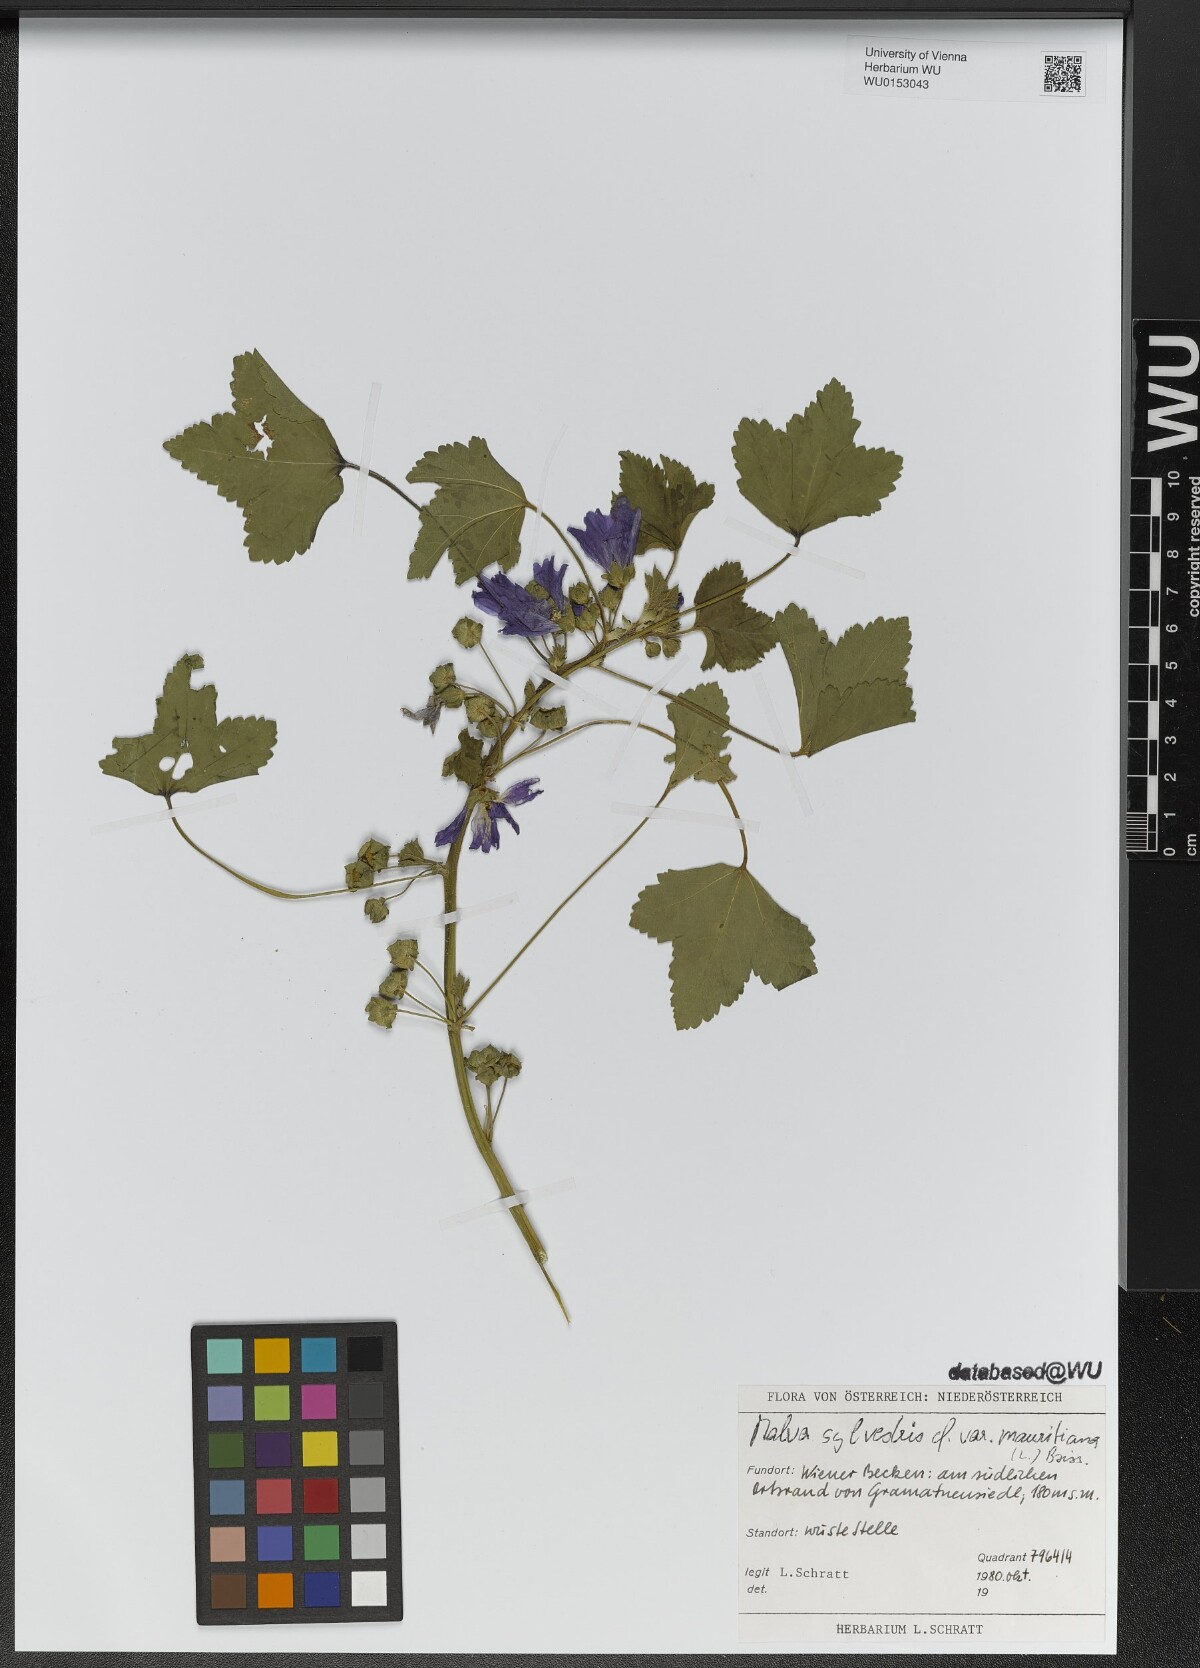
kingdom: Plantae
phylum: Tracheophyta
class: Magnoliopsida
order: Malvales
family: Malvaceae
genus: Malva
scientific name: Malva sylvestris
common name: Common mallow
